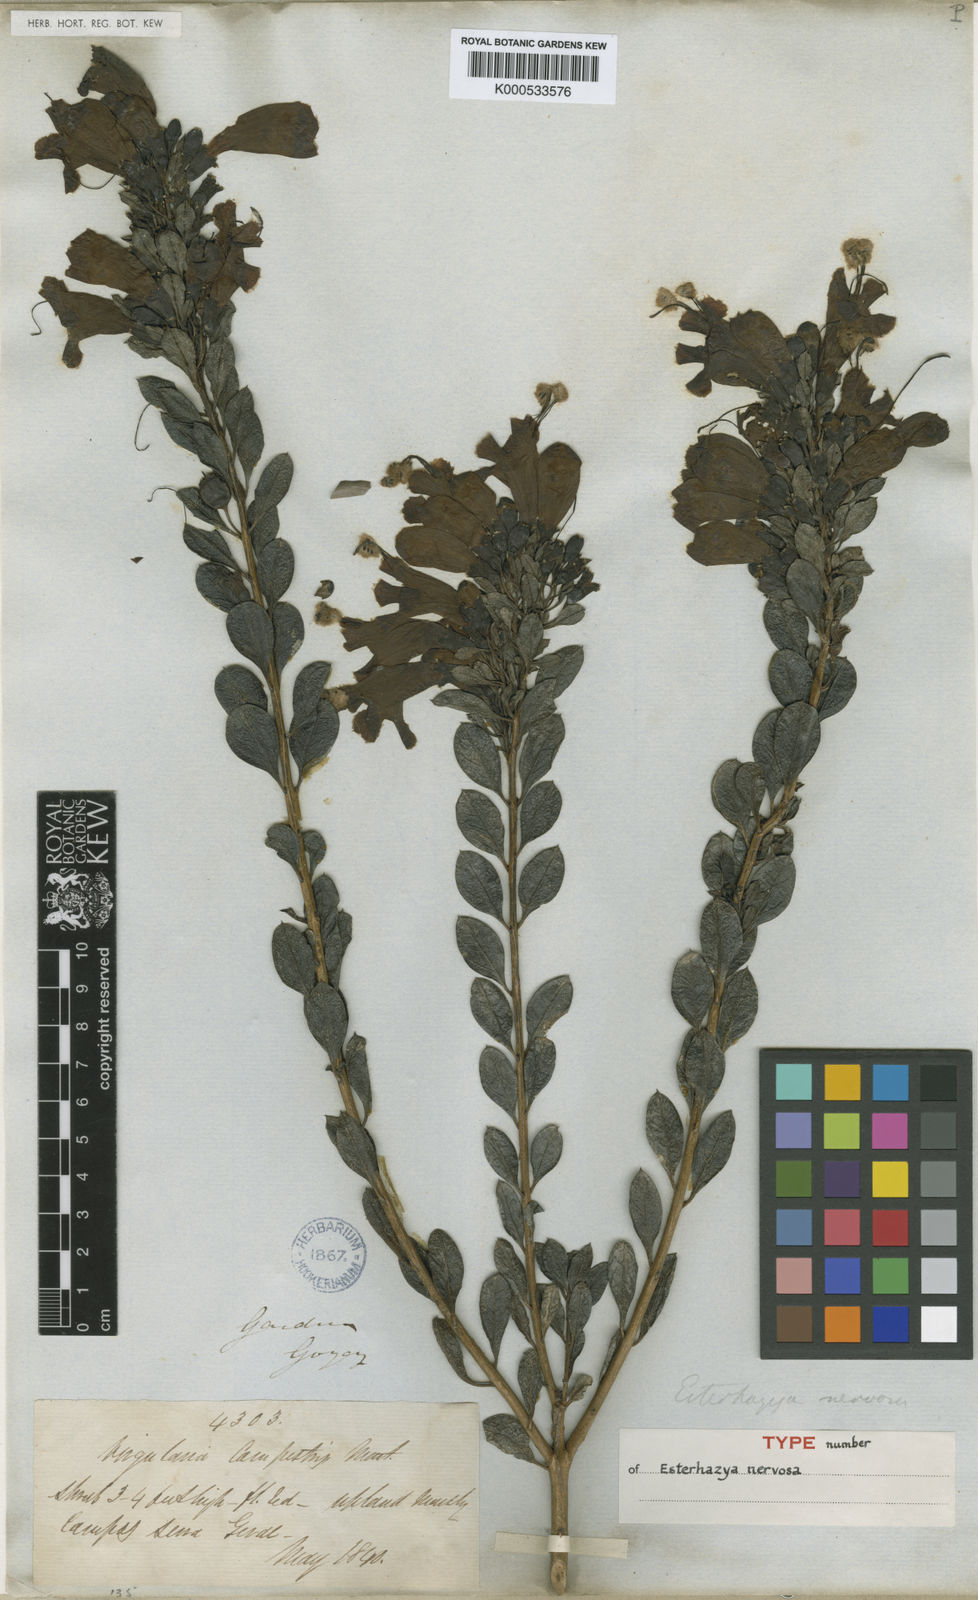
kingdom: Plantae
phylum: Tracheophyta
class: Magnoliopsida
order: Lamiales
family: Orobanchaceae
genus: Esterhazya
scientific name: Esterhazya splendida
